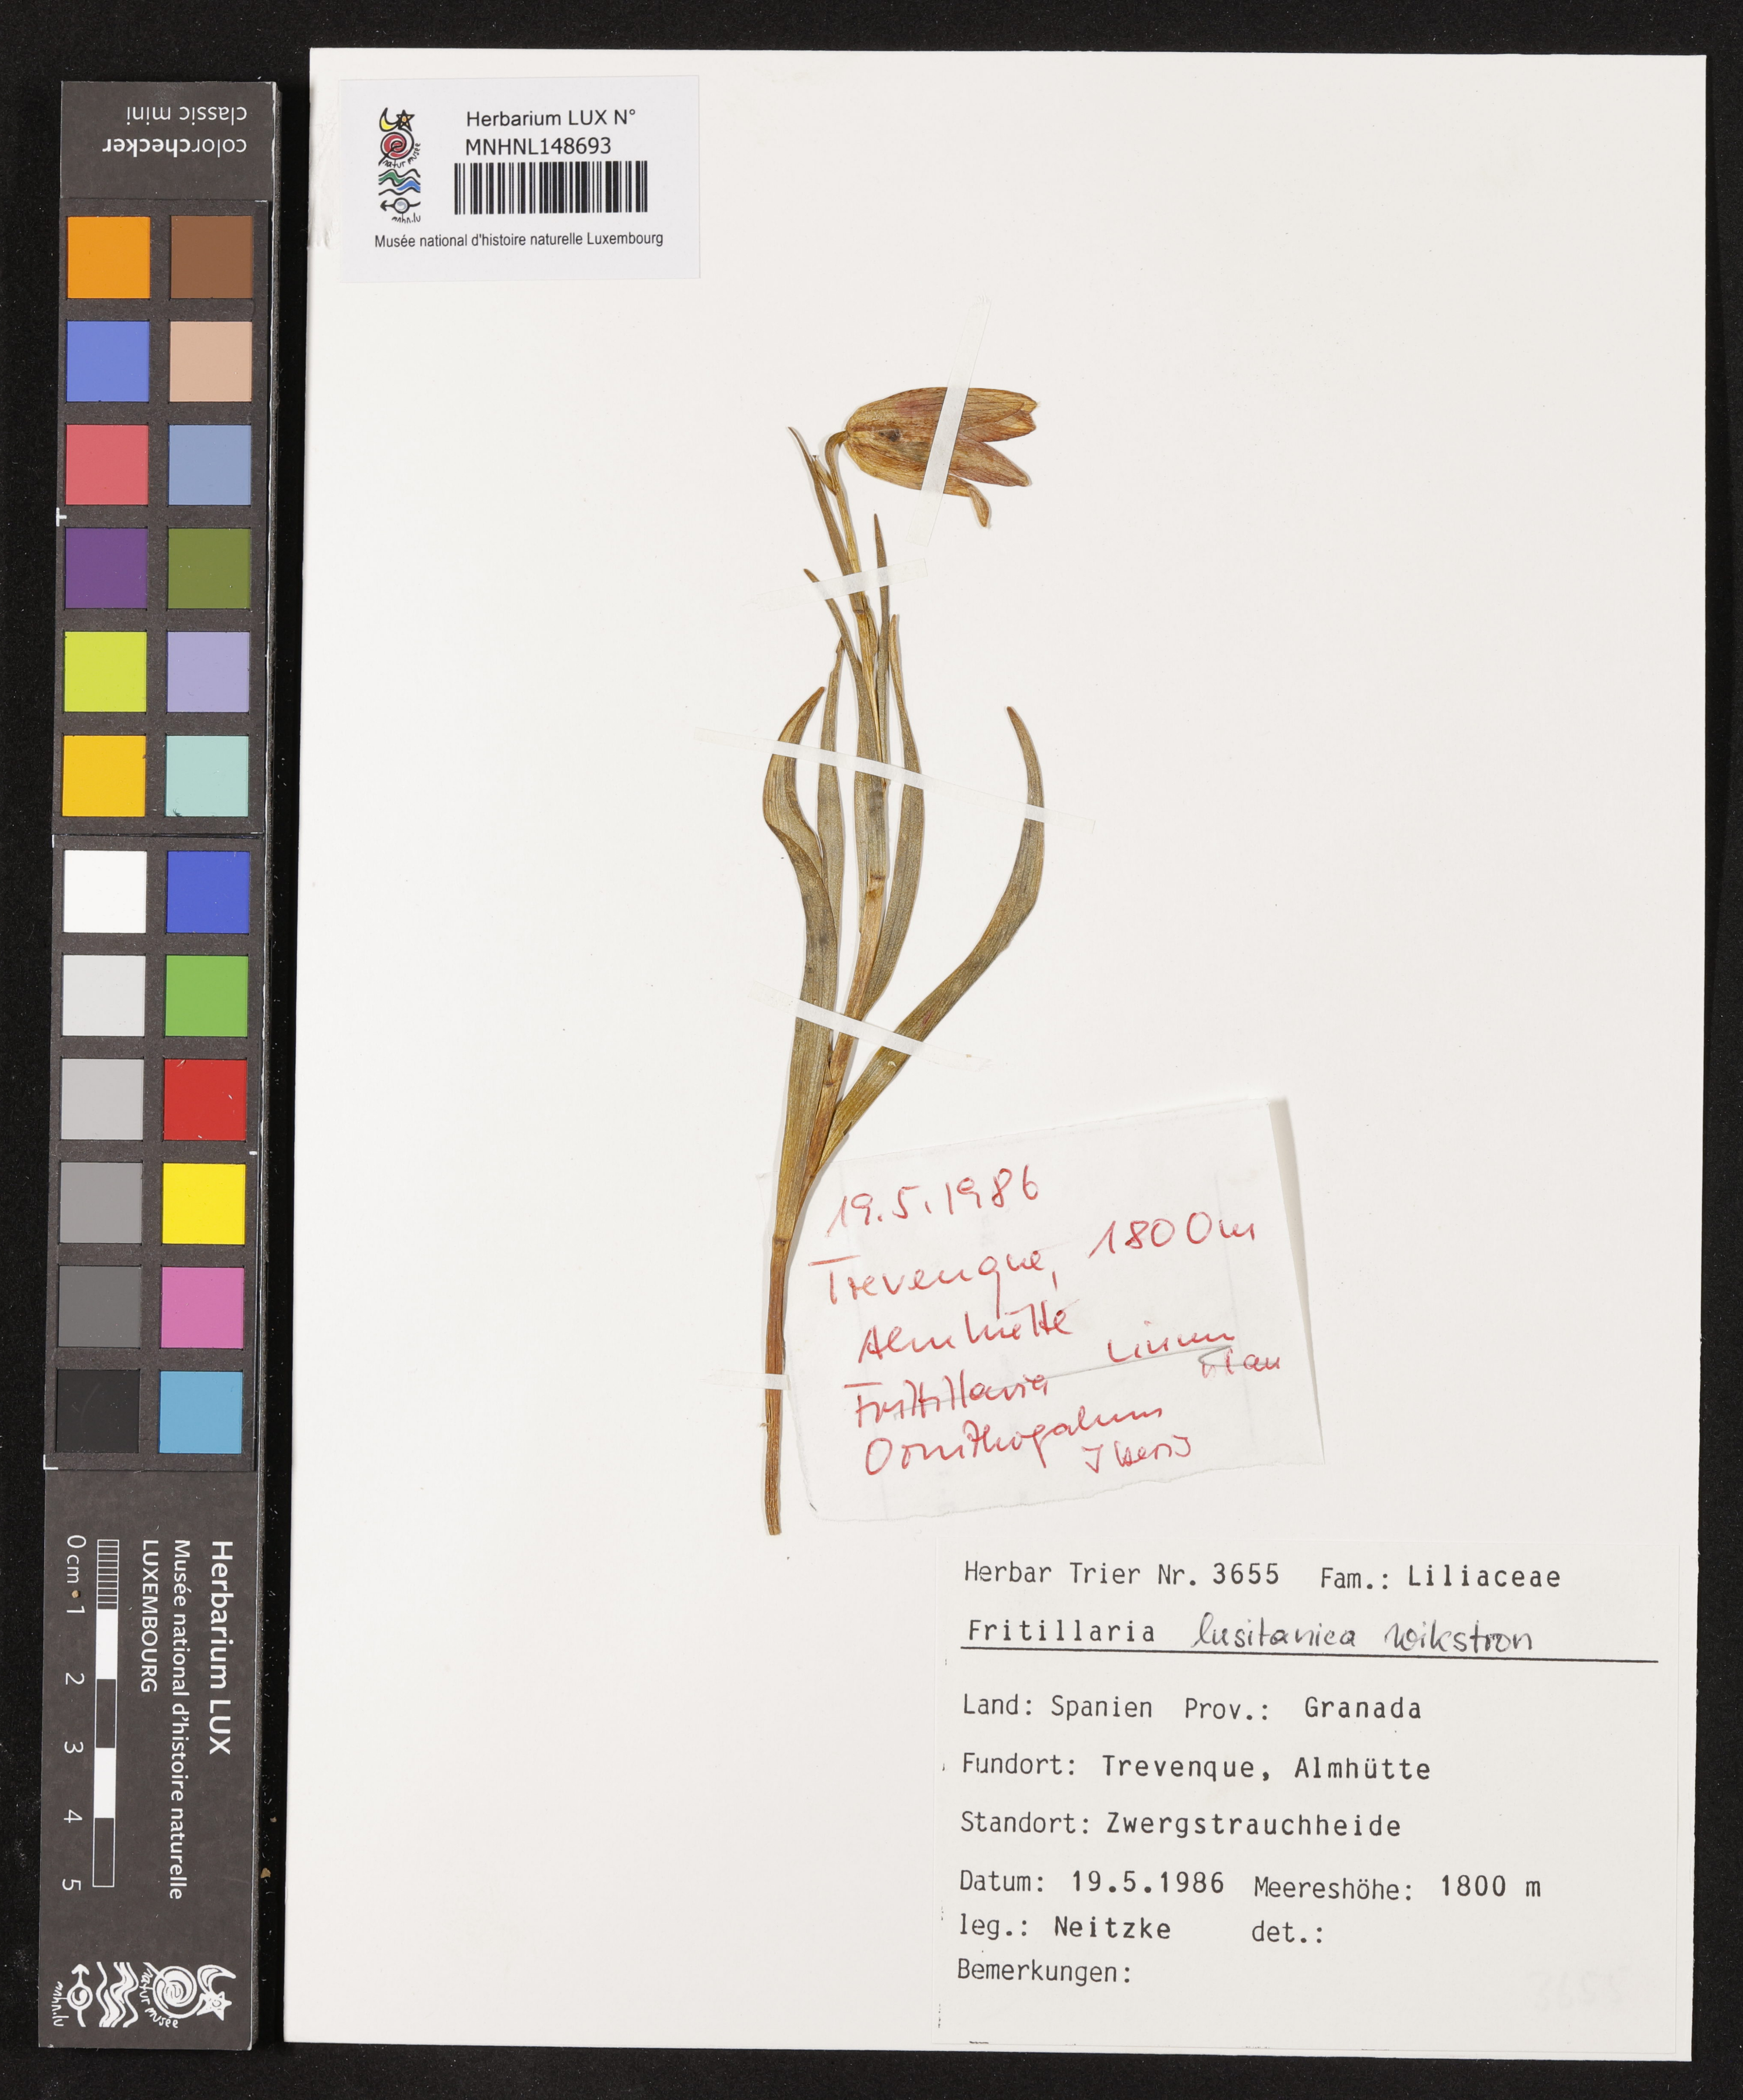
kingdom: Plantae
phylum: Tracheophyta
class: Liliopsida
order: Liliales
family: Liliaceae
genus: Fritillaria
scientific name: Fritillaria lusitanica
